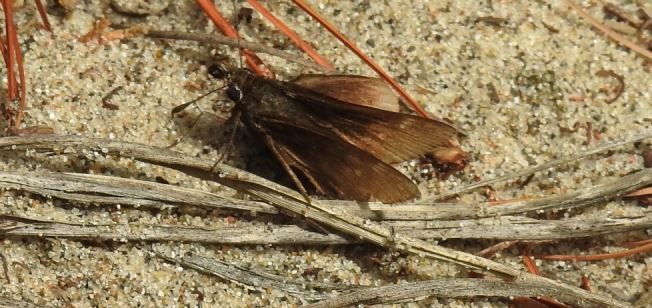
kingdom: Animalia
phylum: Arthropoda
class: Insecta
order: Lepidoptera
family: Hesperiidae
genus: Atrytonopsis
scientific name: Atrytonopsis hianna
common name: Dusted Skipper
